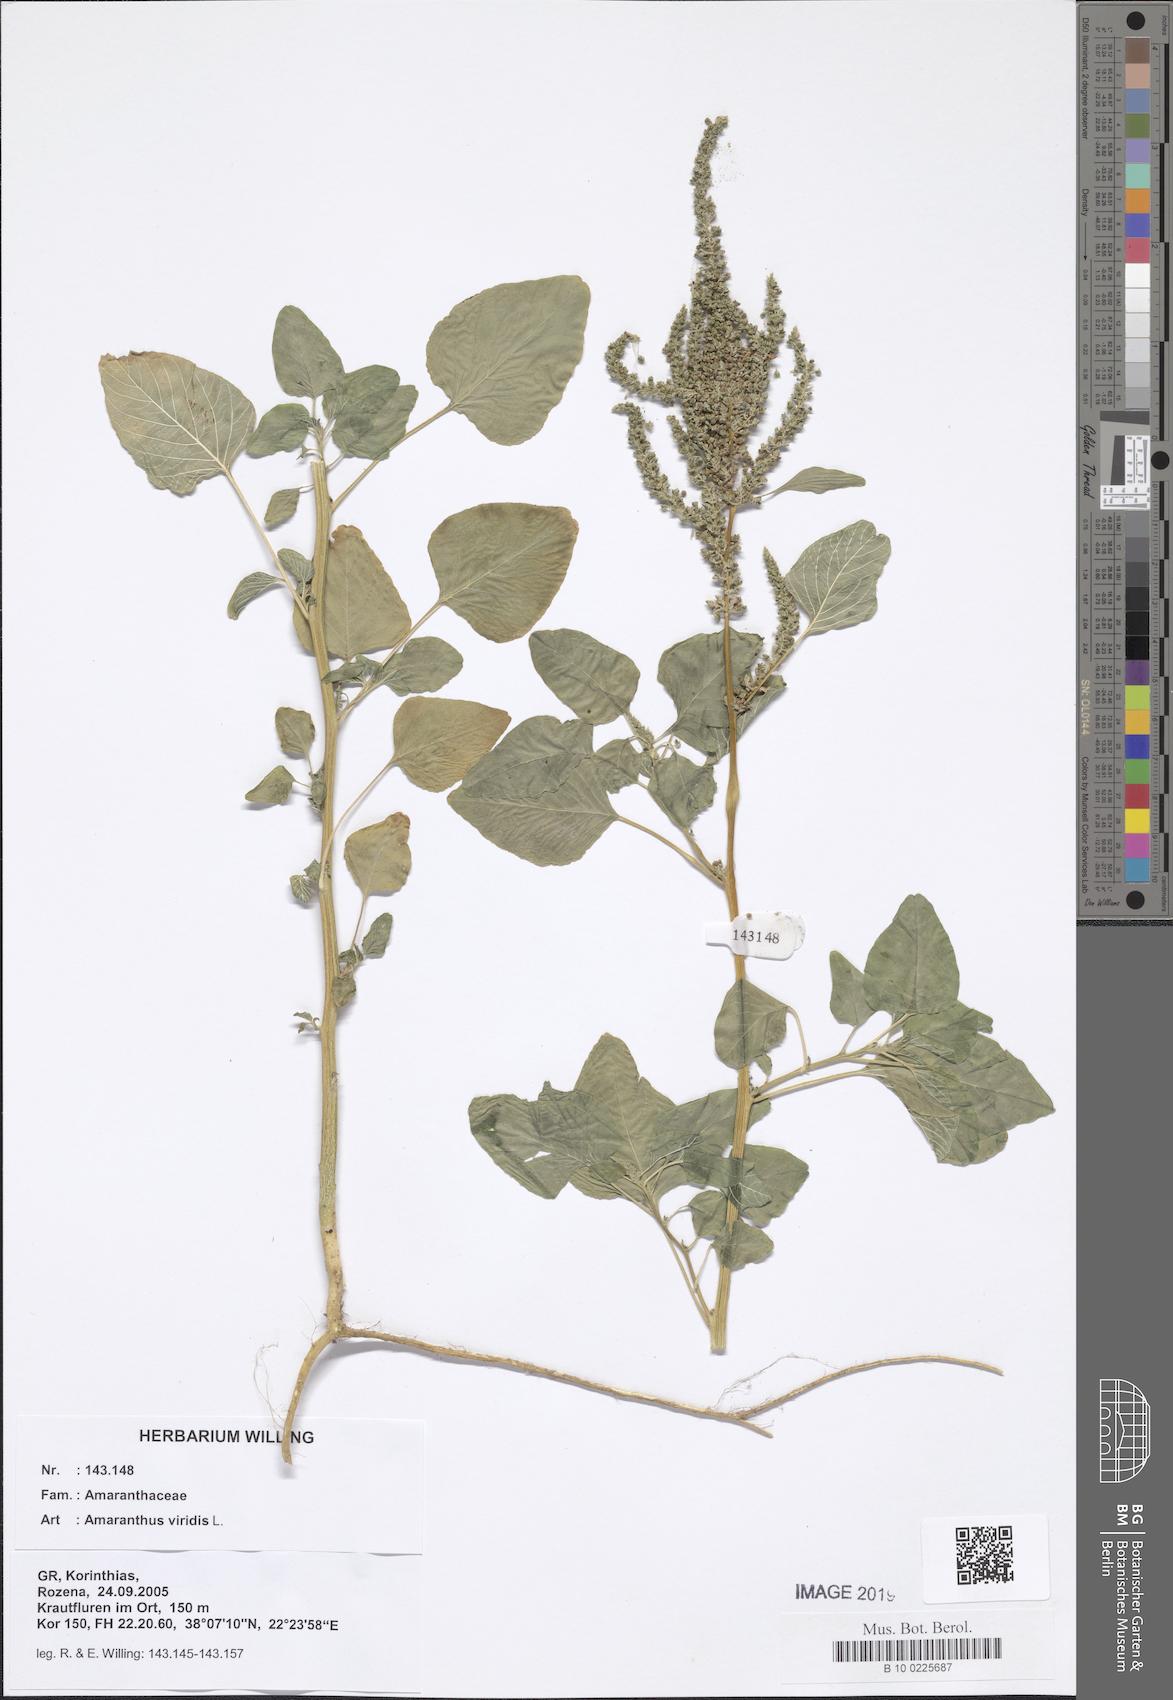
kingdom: Plantae
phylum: Tracheophyta
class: Magnoliopsida
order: Caryophyllales
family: Amaranthaceae
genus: Amaranthus
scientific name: Amaranthus viridis
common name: Slender amaranth
